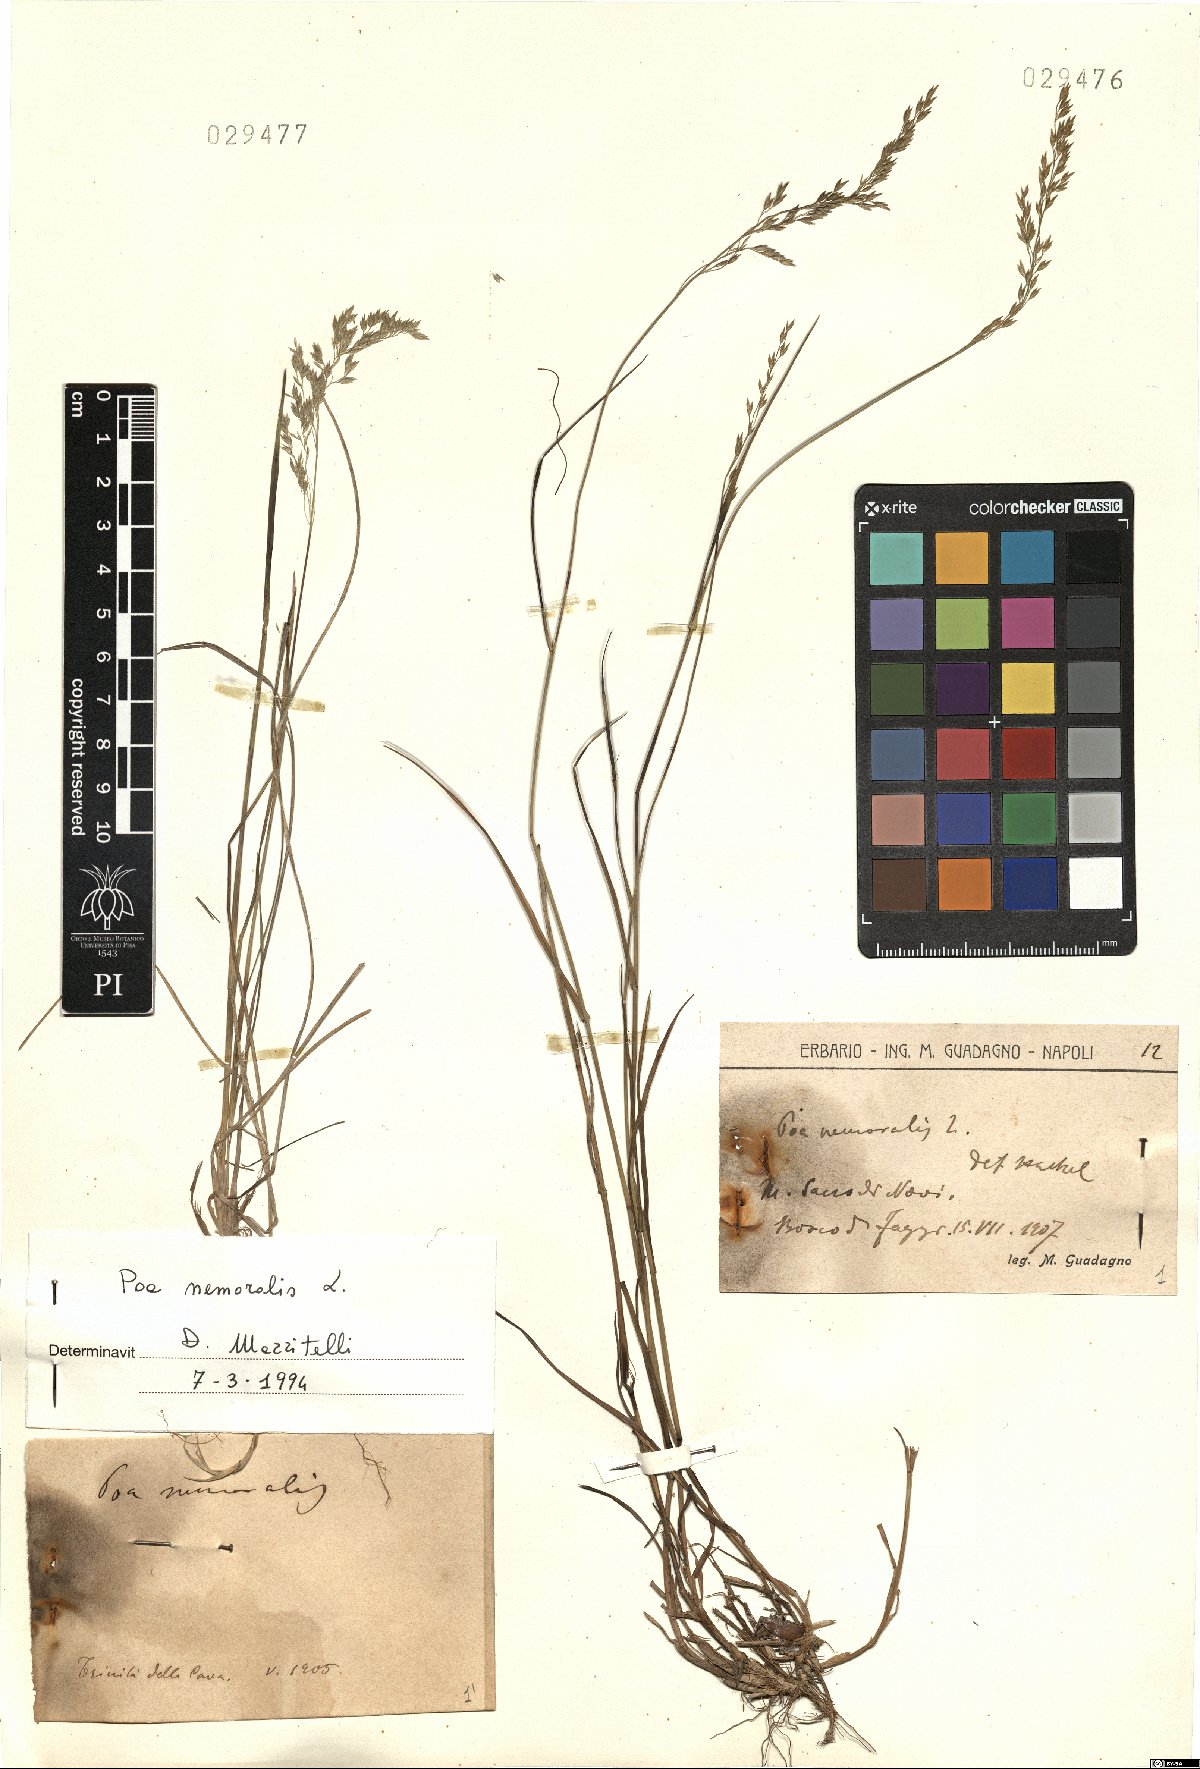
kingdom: Plantae
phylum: Tracheophyta
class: Liliopsida
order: Poales
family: Poaceae
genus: Poa
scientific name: Poa nemoralis
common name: Wood bluegrass
